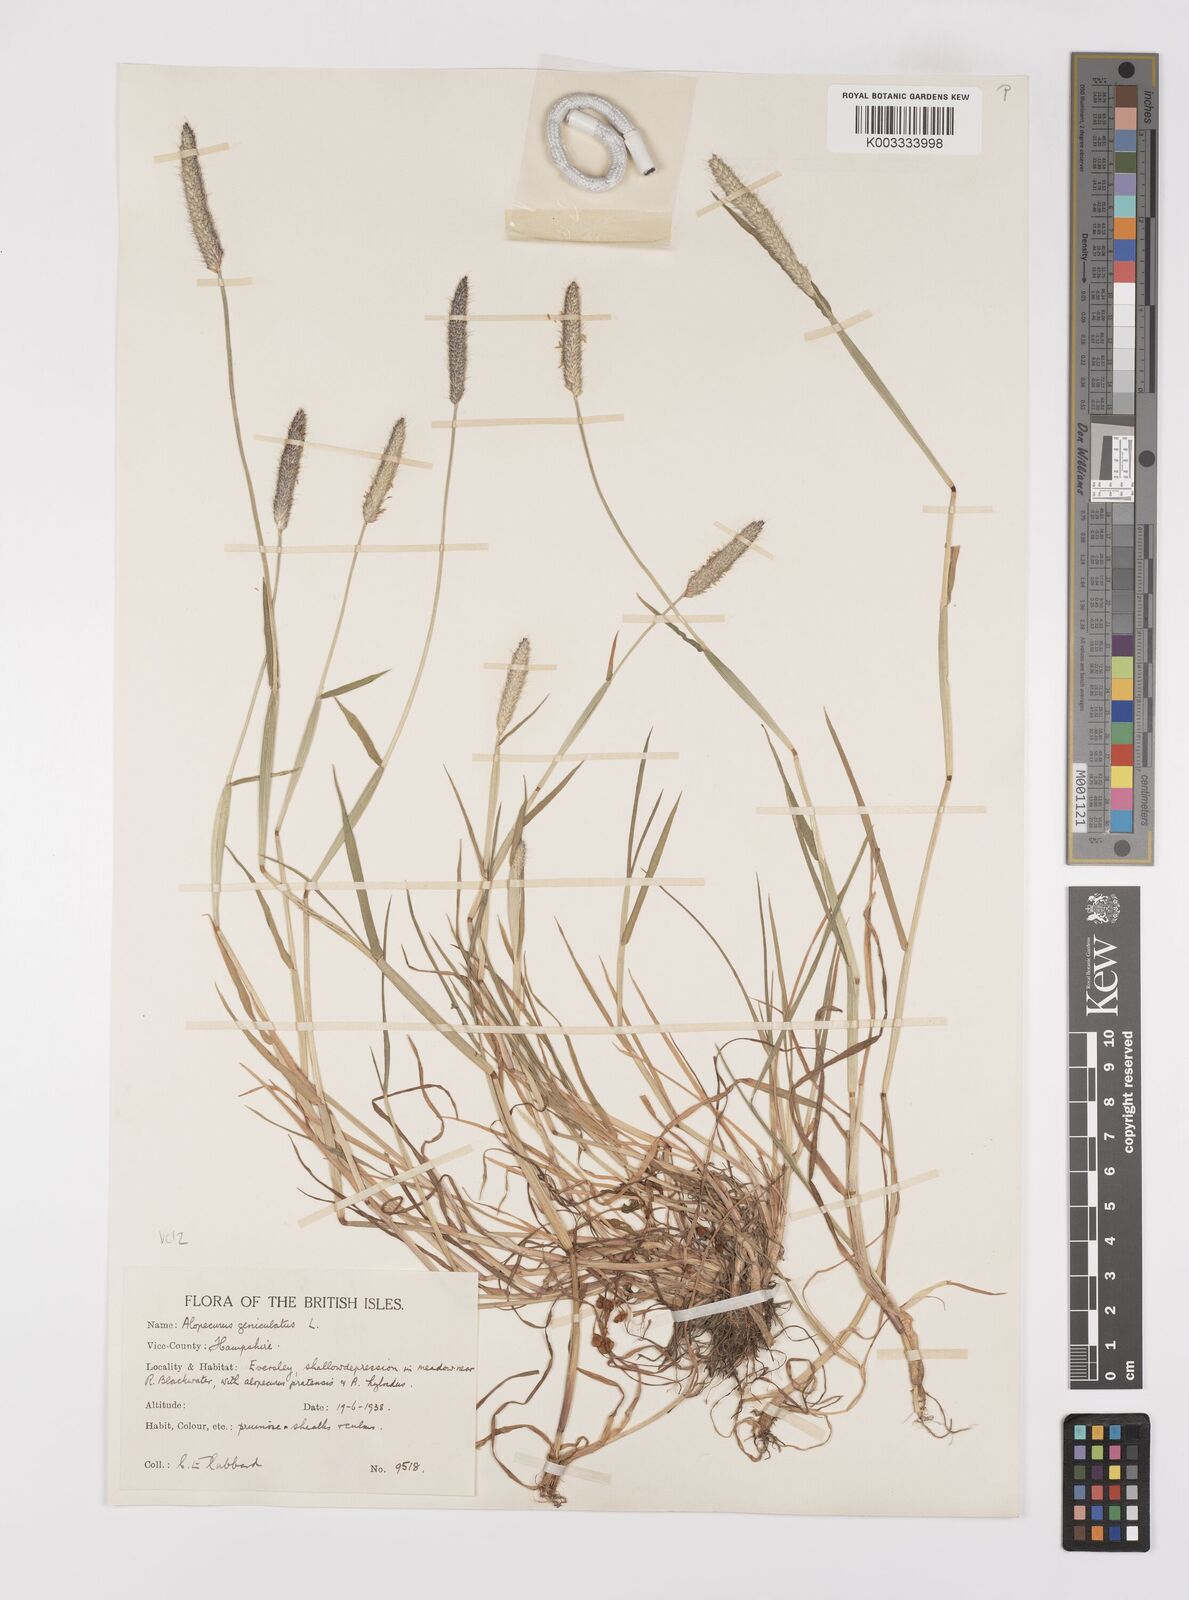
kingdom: Plantae
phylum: Tracheophyta
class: Liliopsida
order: Poales
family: Poaceae
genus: Alopecurus
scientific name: Alopecurus geniculatus
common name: Water foxtail
